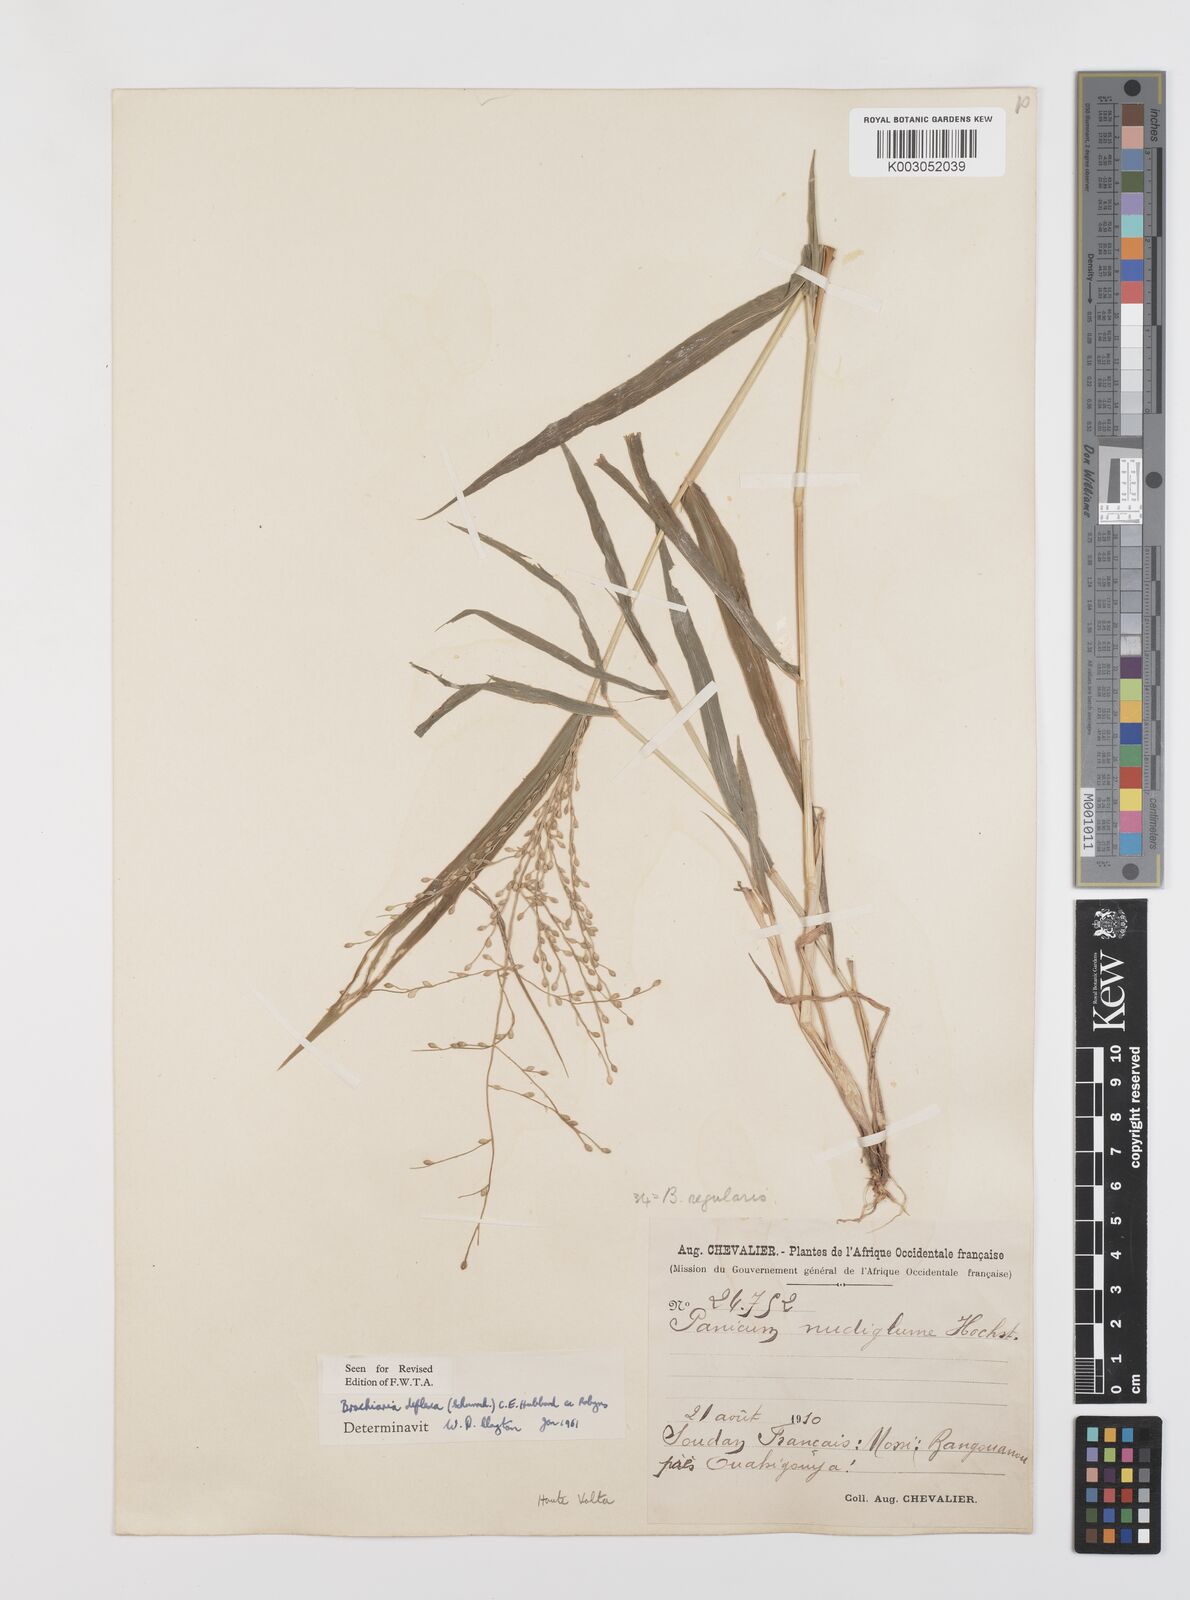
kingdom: Plantae
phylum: Tracheophyta
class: Liliopsida
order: Poales
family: Poaceae
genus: Urochloa
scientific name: Urochloa deflexa
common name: Guinea millet
